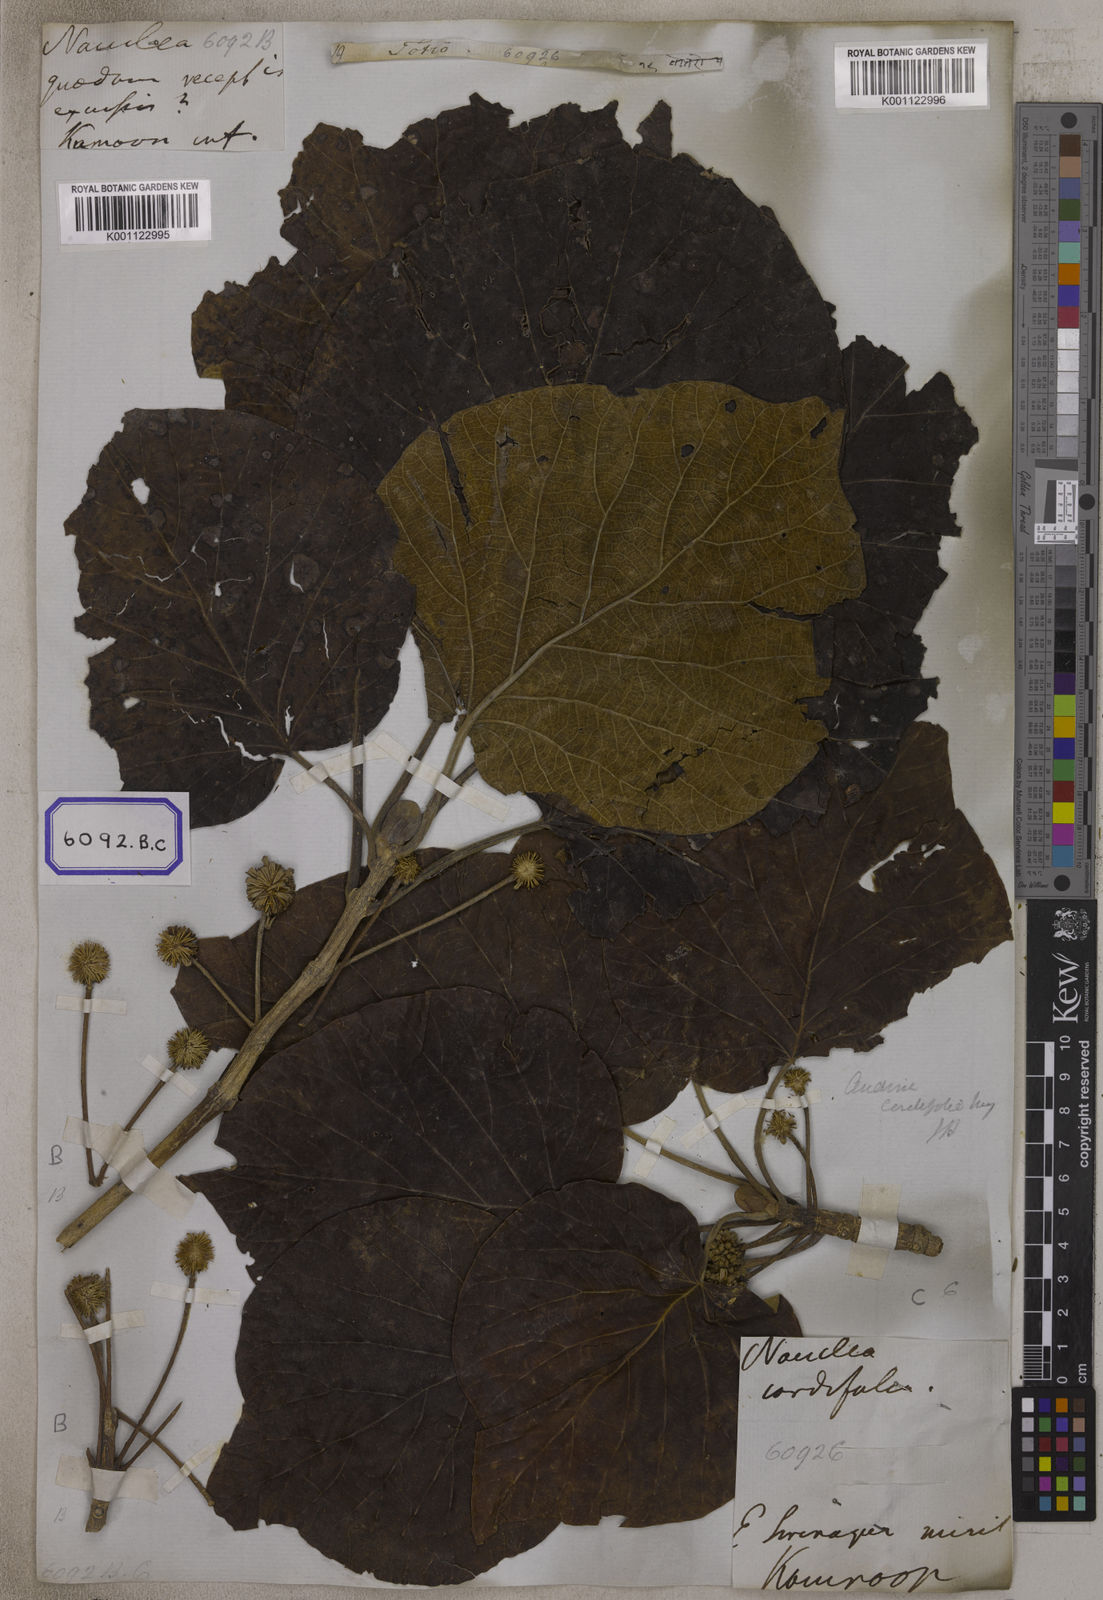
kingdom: Plantae
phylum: Tracheophyta
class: Magnoliopsida
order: Gentianales
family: Rubiaceae
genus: Adina
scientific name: Adina cordifolia
